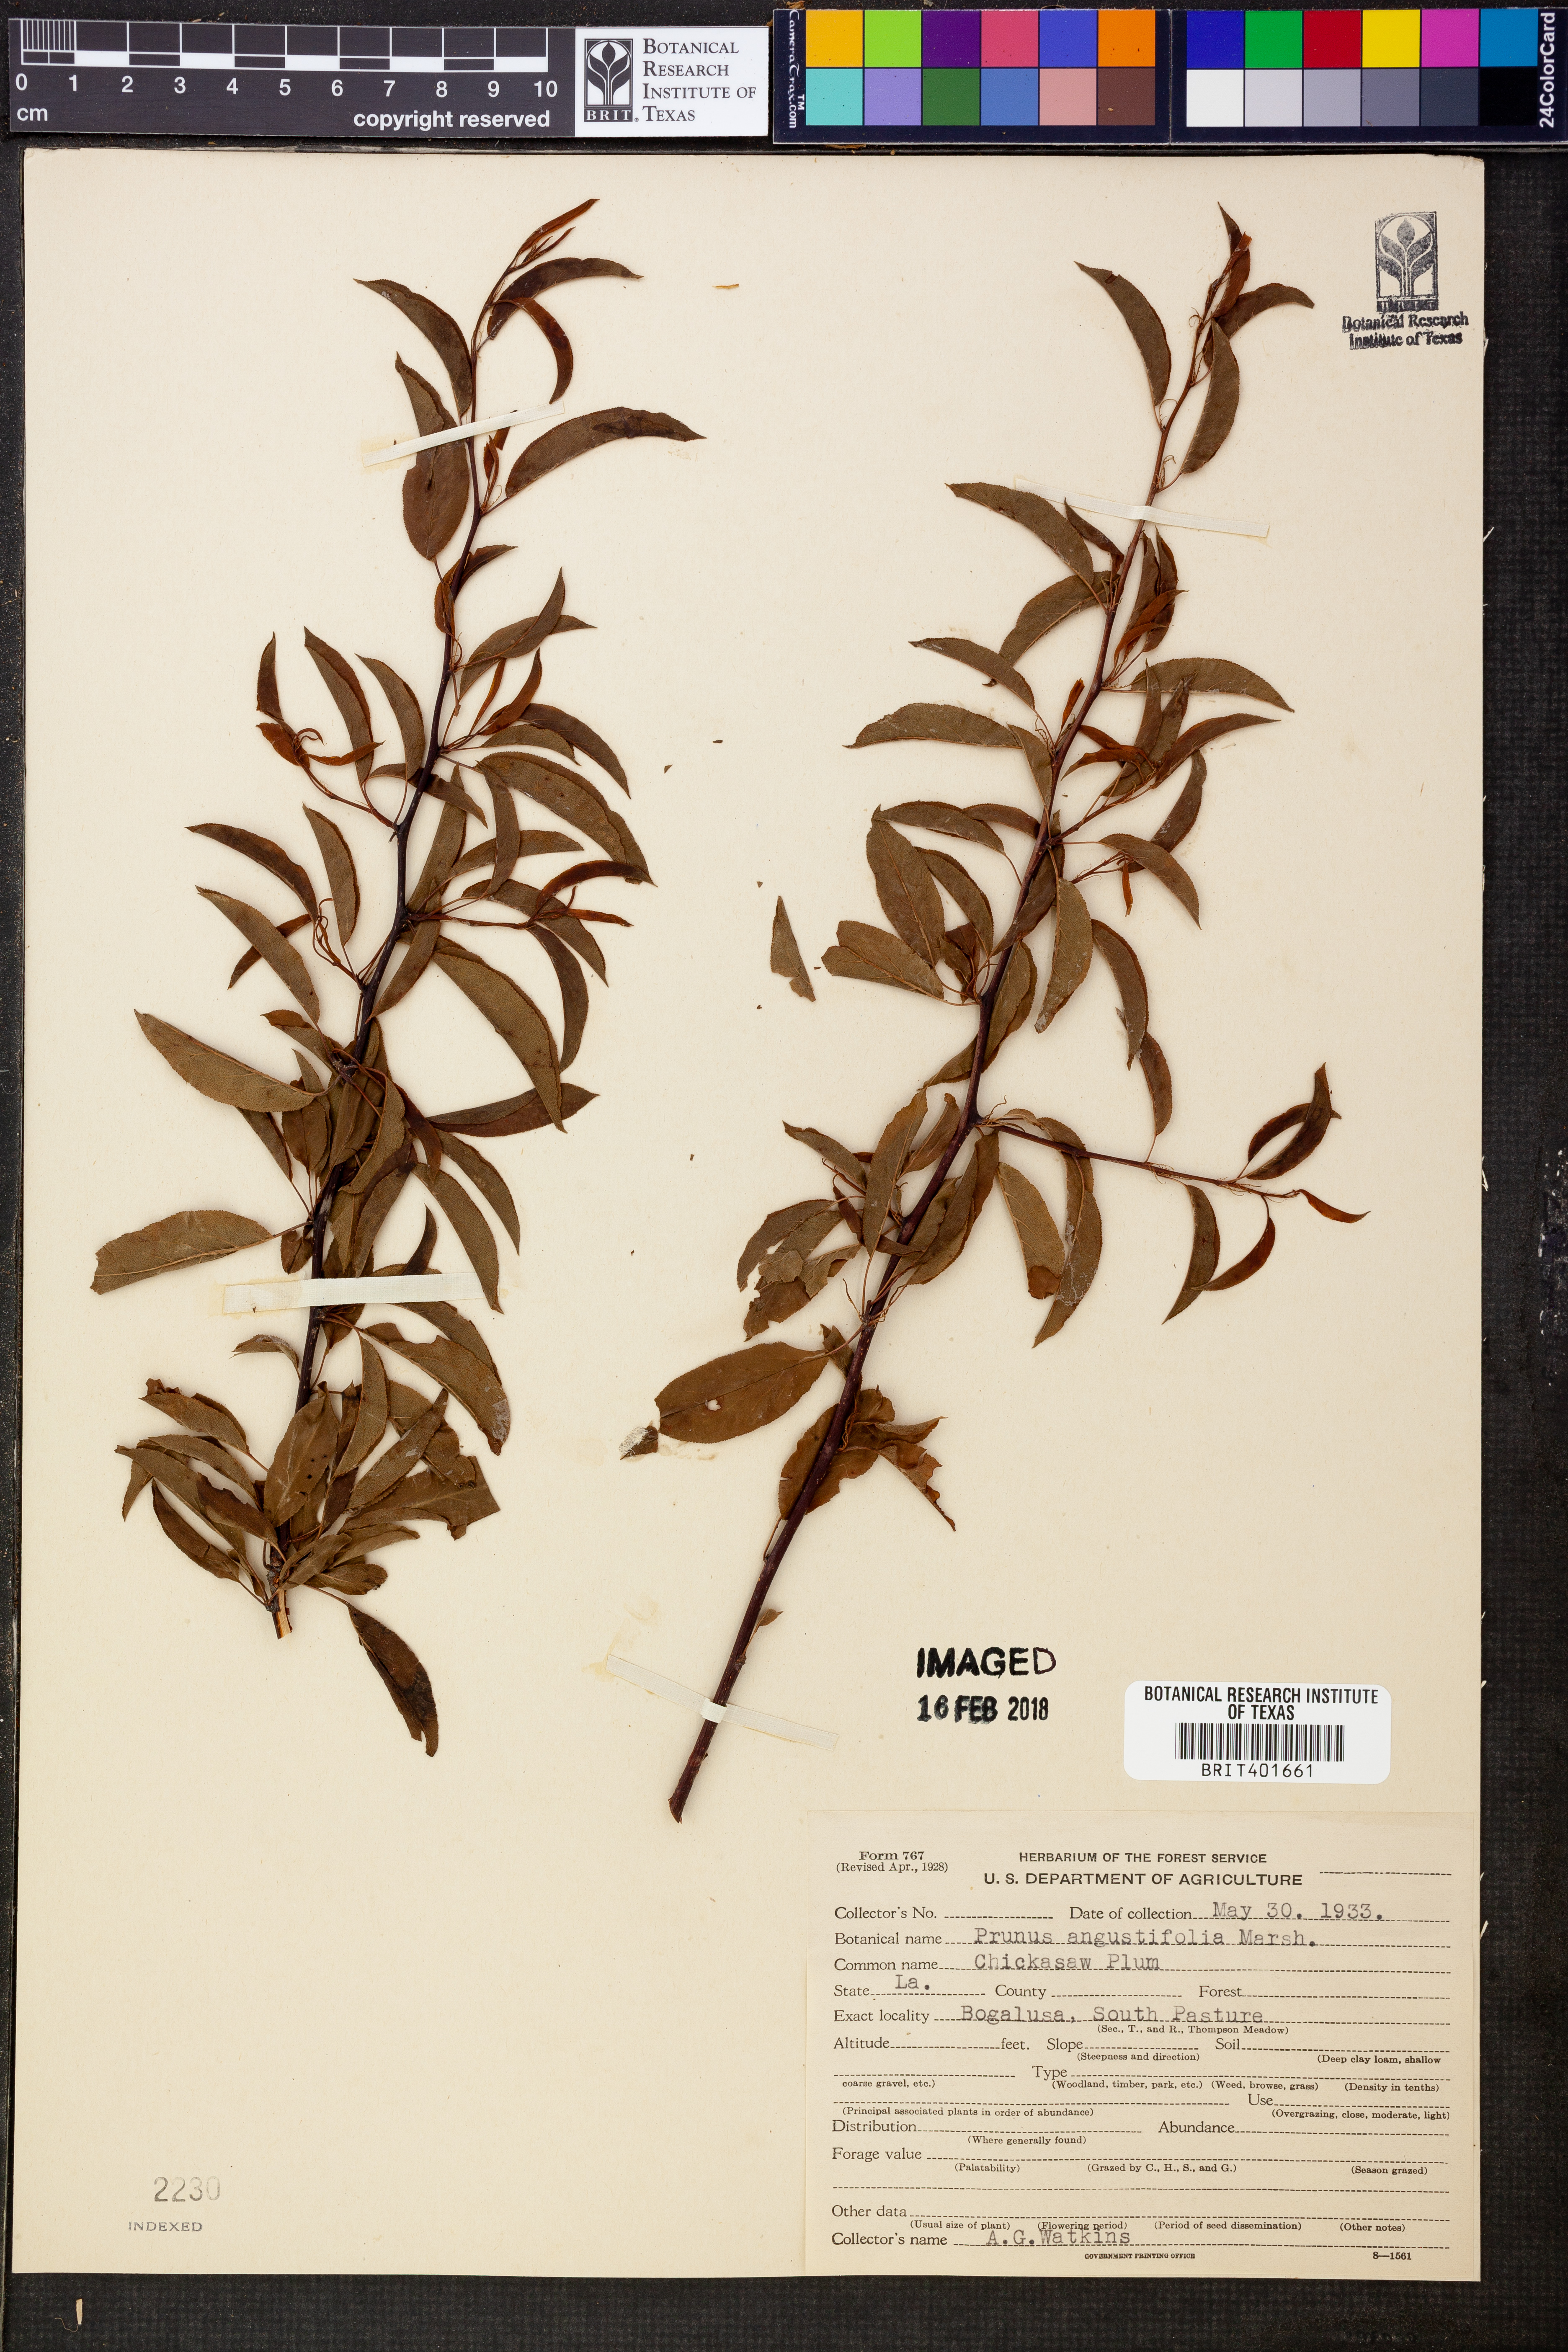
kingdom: Plantae
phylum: Tracheophyta
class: Magnoliopsida
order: Rosales
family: Rosaceae
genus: Prunus
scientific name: Prunus angustifolia
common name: Cherokee plum
